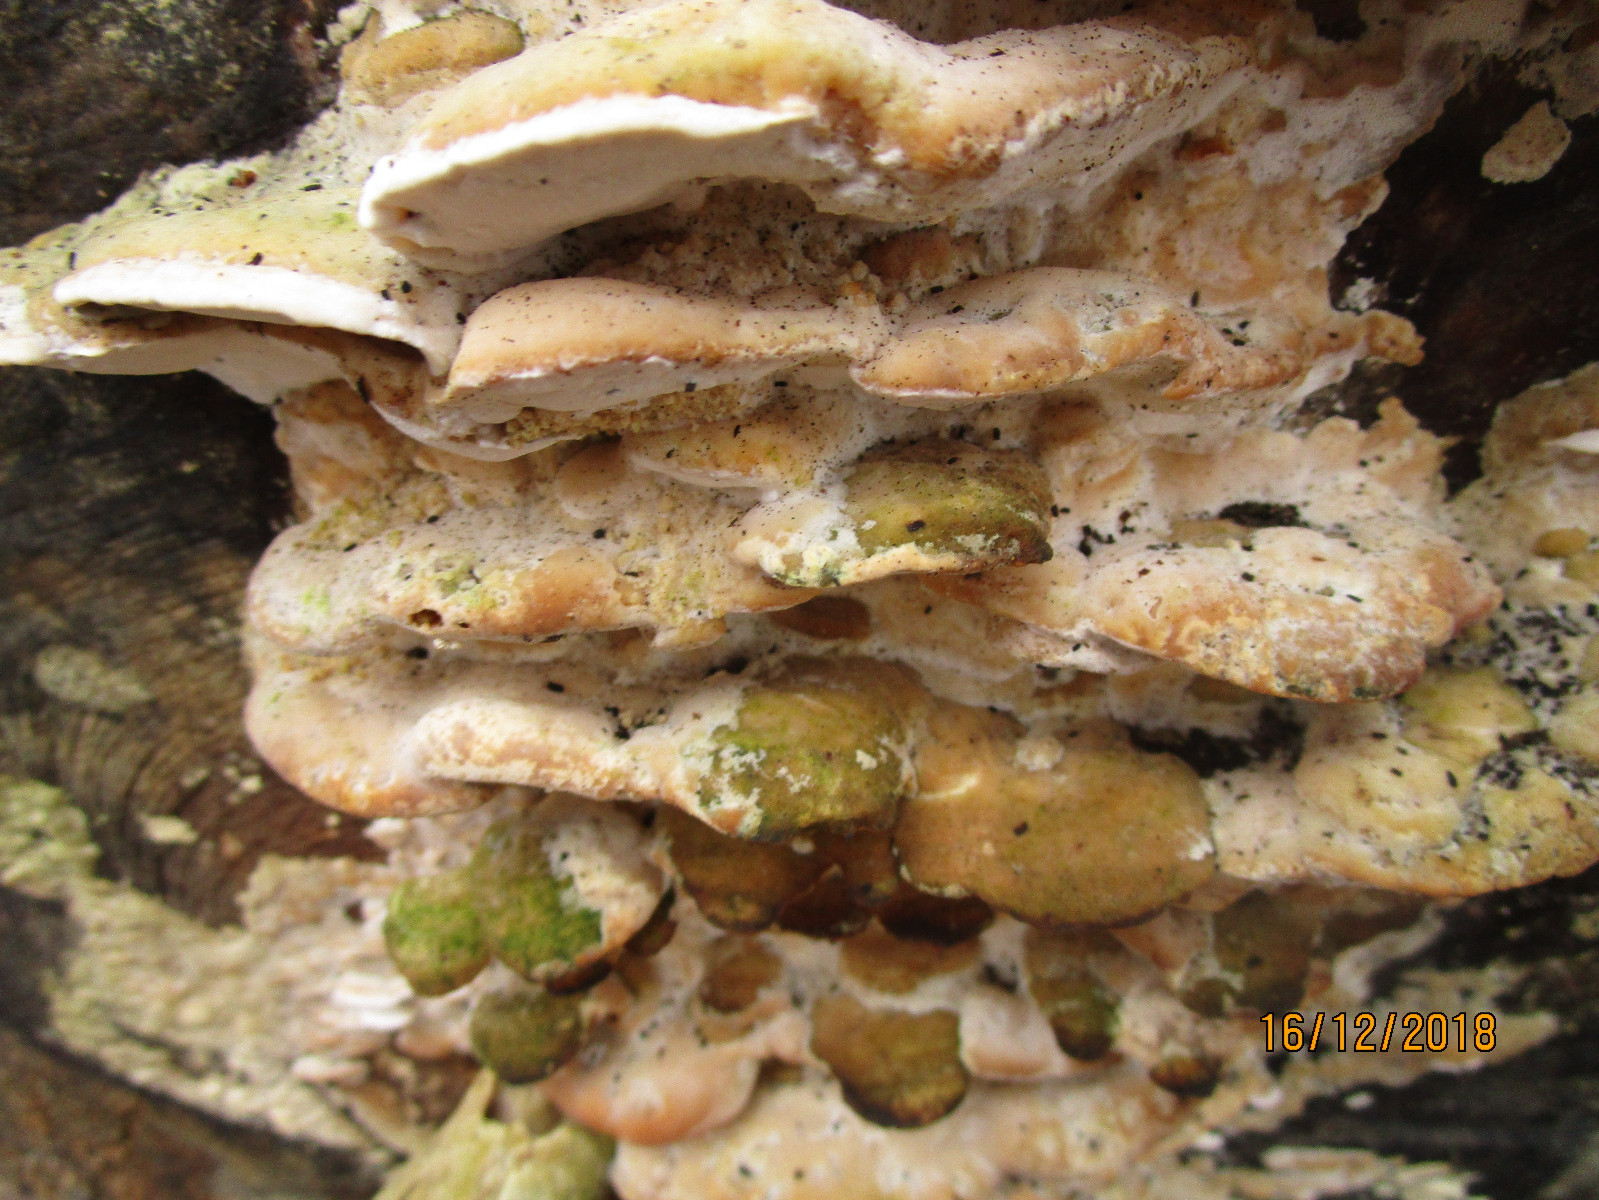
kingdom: Fungi
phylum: Basidiomycota
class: Agaricomycetes
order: Hymenochaetales
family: Oxyporaceae
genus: Oxyporus
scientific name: Oxyporus populinus
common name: sammenvokset trylleporesvamp
